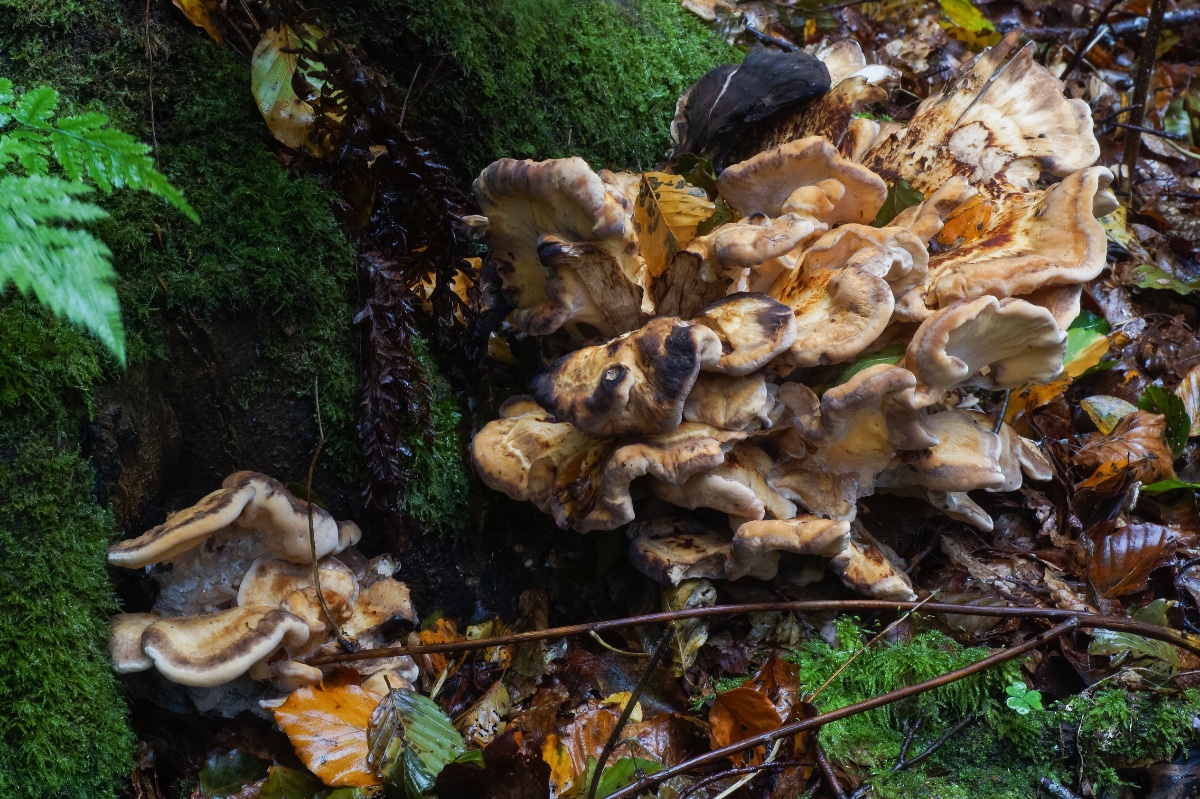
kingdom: Fungi
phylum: Basidiomycota
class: Agaricomycetes
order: Polyporales
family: Meripilaceae
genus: Meripilus
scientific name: Meripilus giganteus
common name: kæmpeporesvamp
